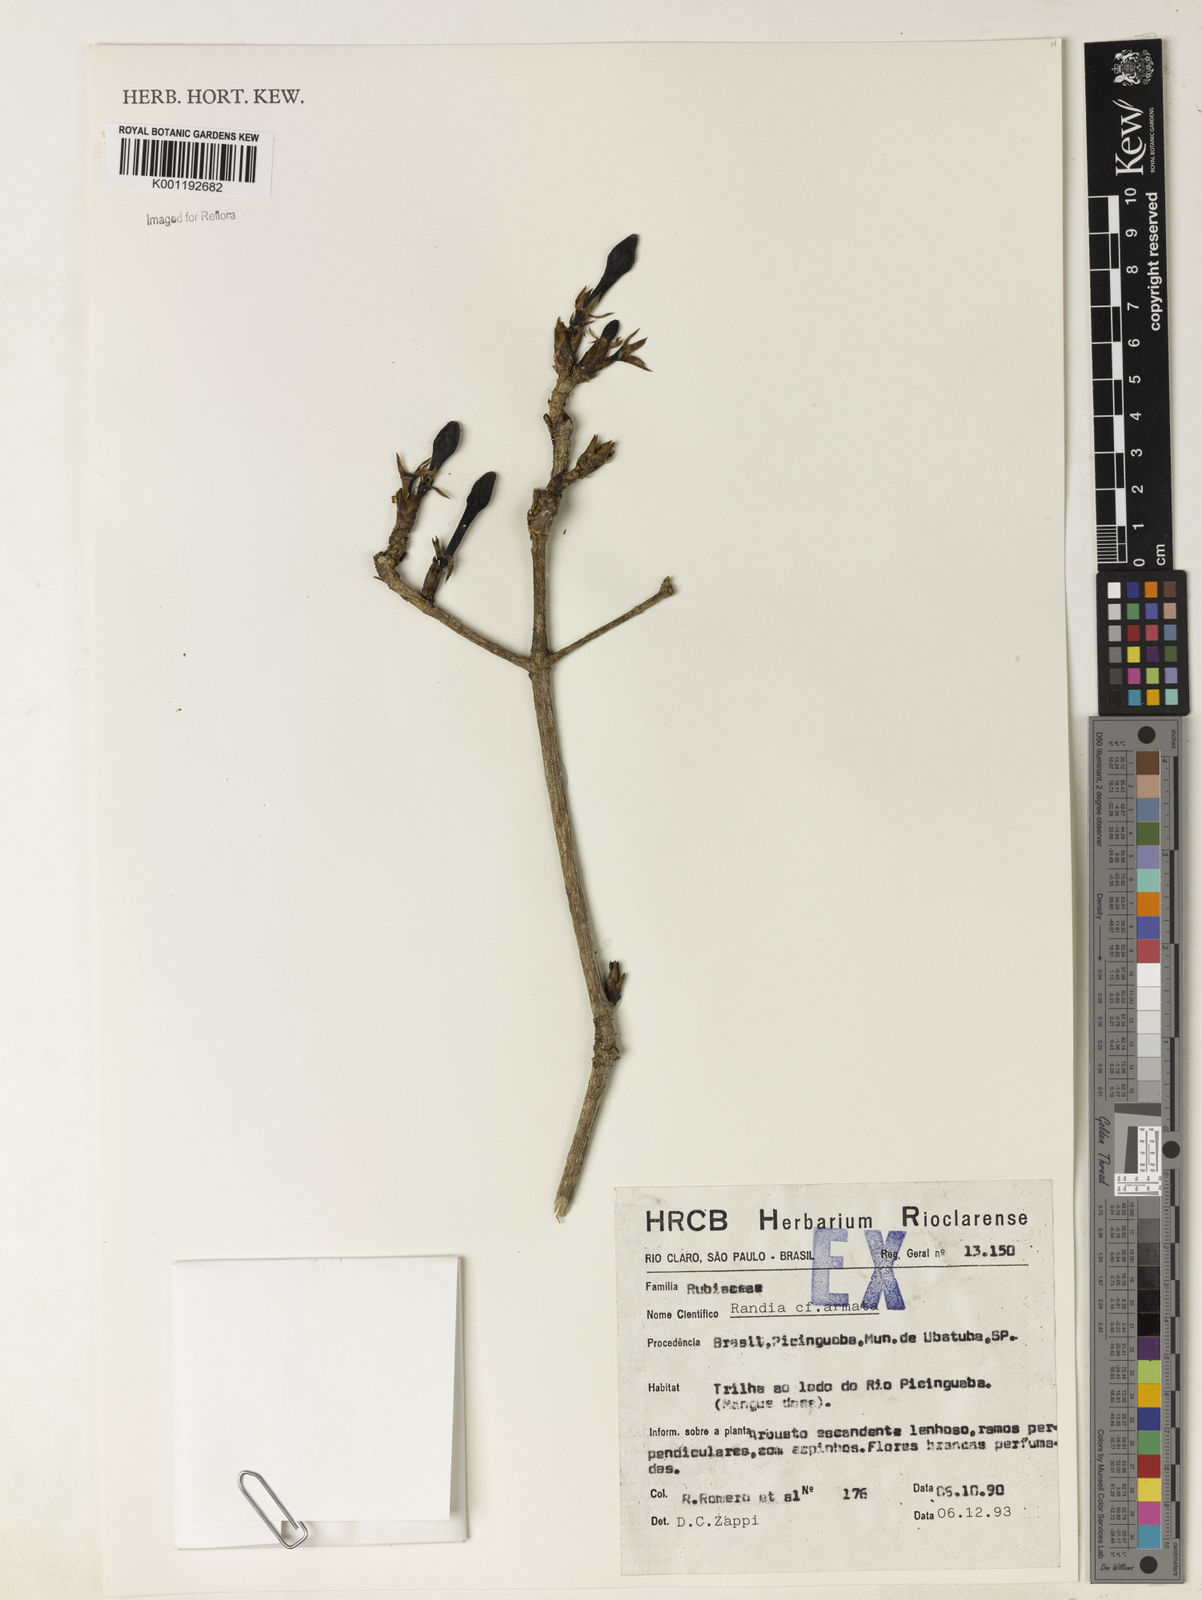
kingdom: Plantae
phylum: Tracheophyta
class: Magnoliopsida
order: Gentianales
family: Rubiaceae
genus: Randia
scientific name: Randia armata
